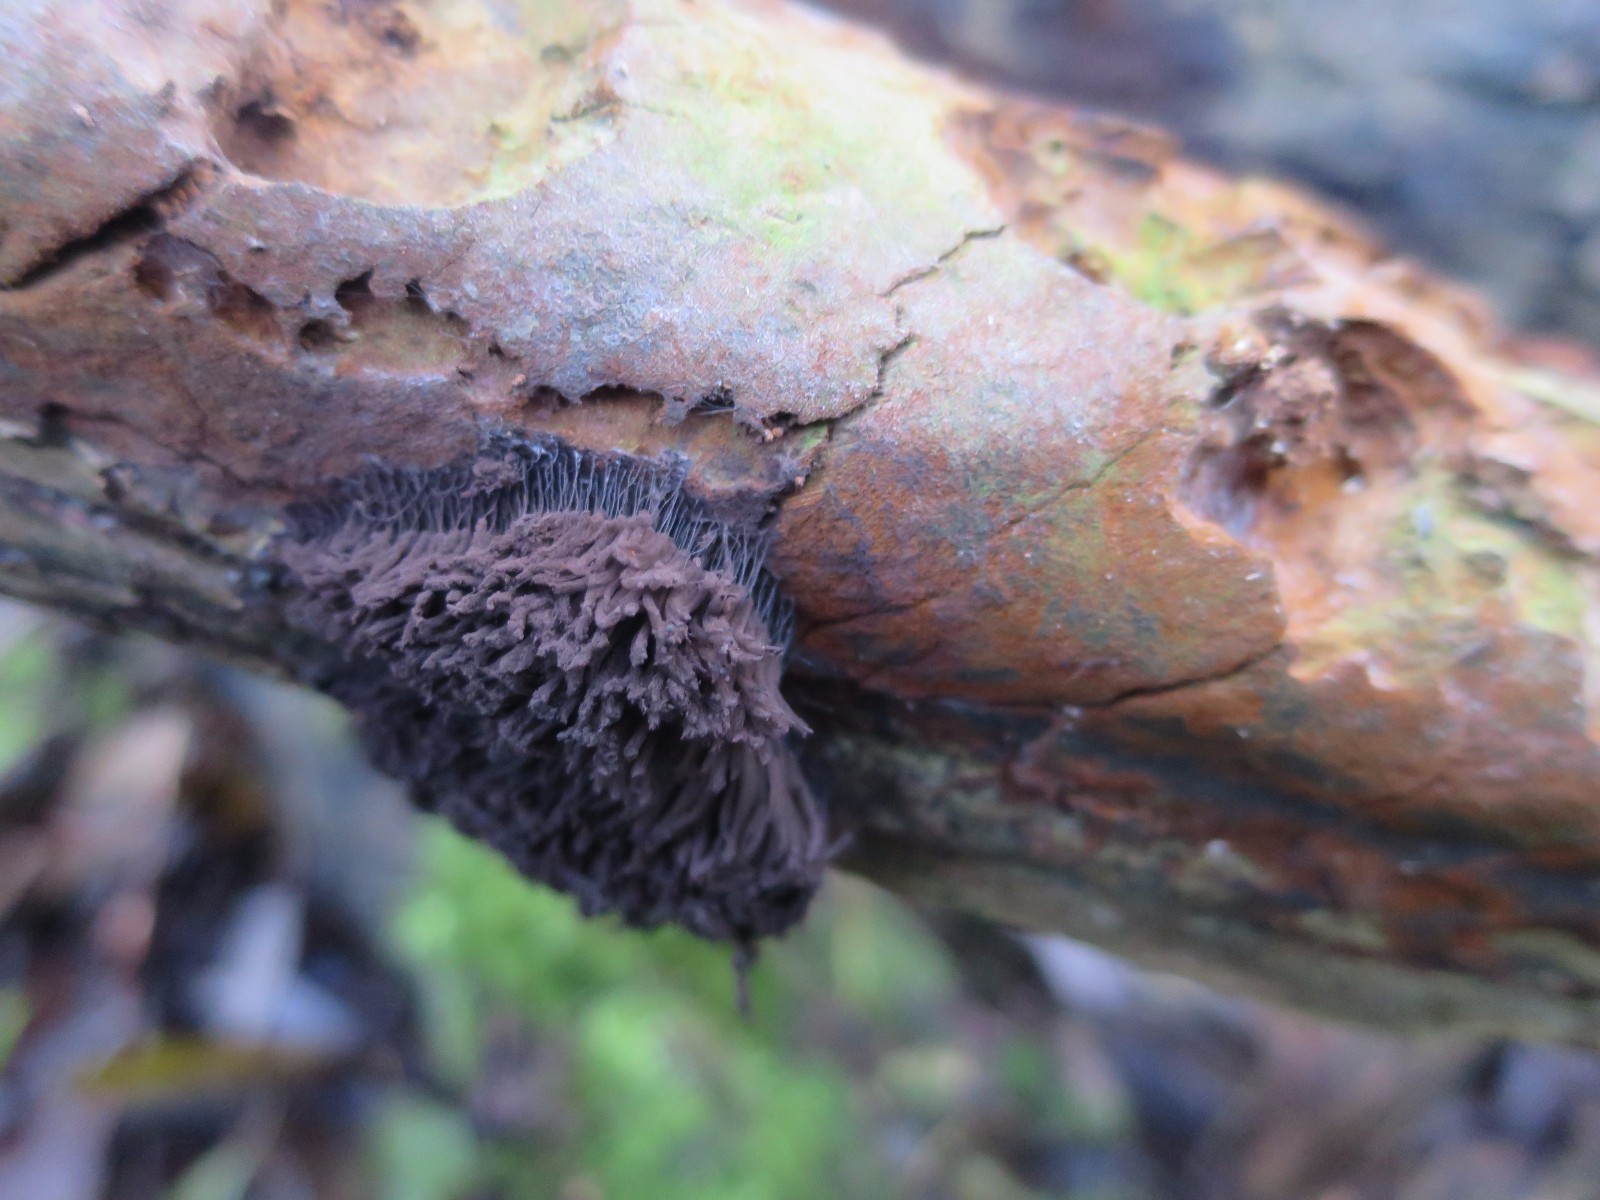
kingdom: Protozoa
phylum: Mycetozoa
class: Myxomycetes
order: Stemonitidales
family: Stemonitidaceae
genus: Stemonitis
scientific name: Stemonitis
